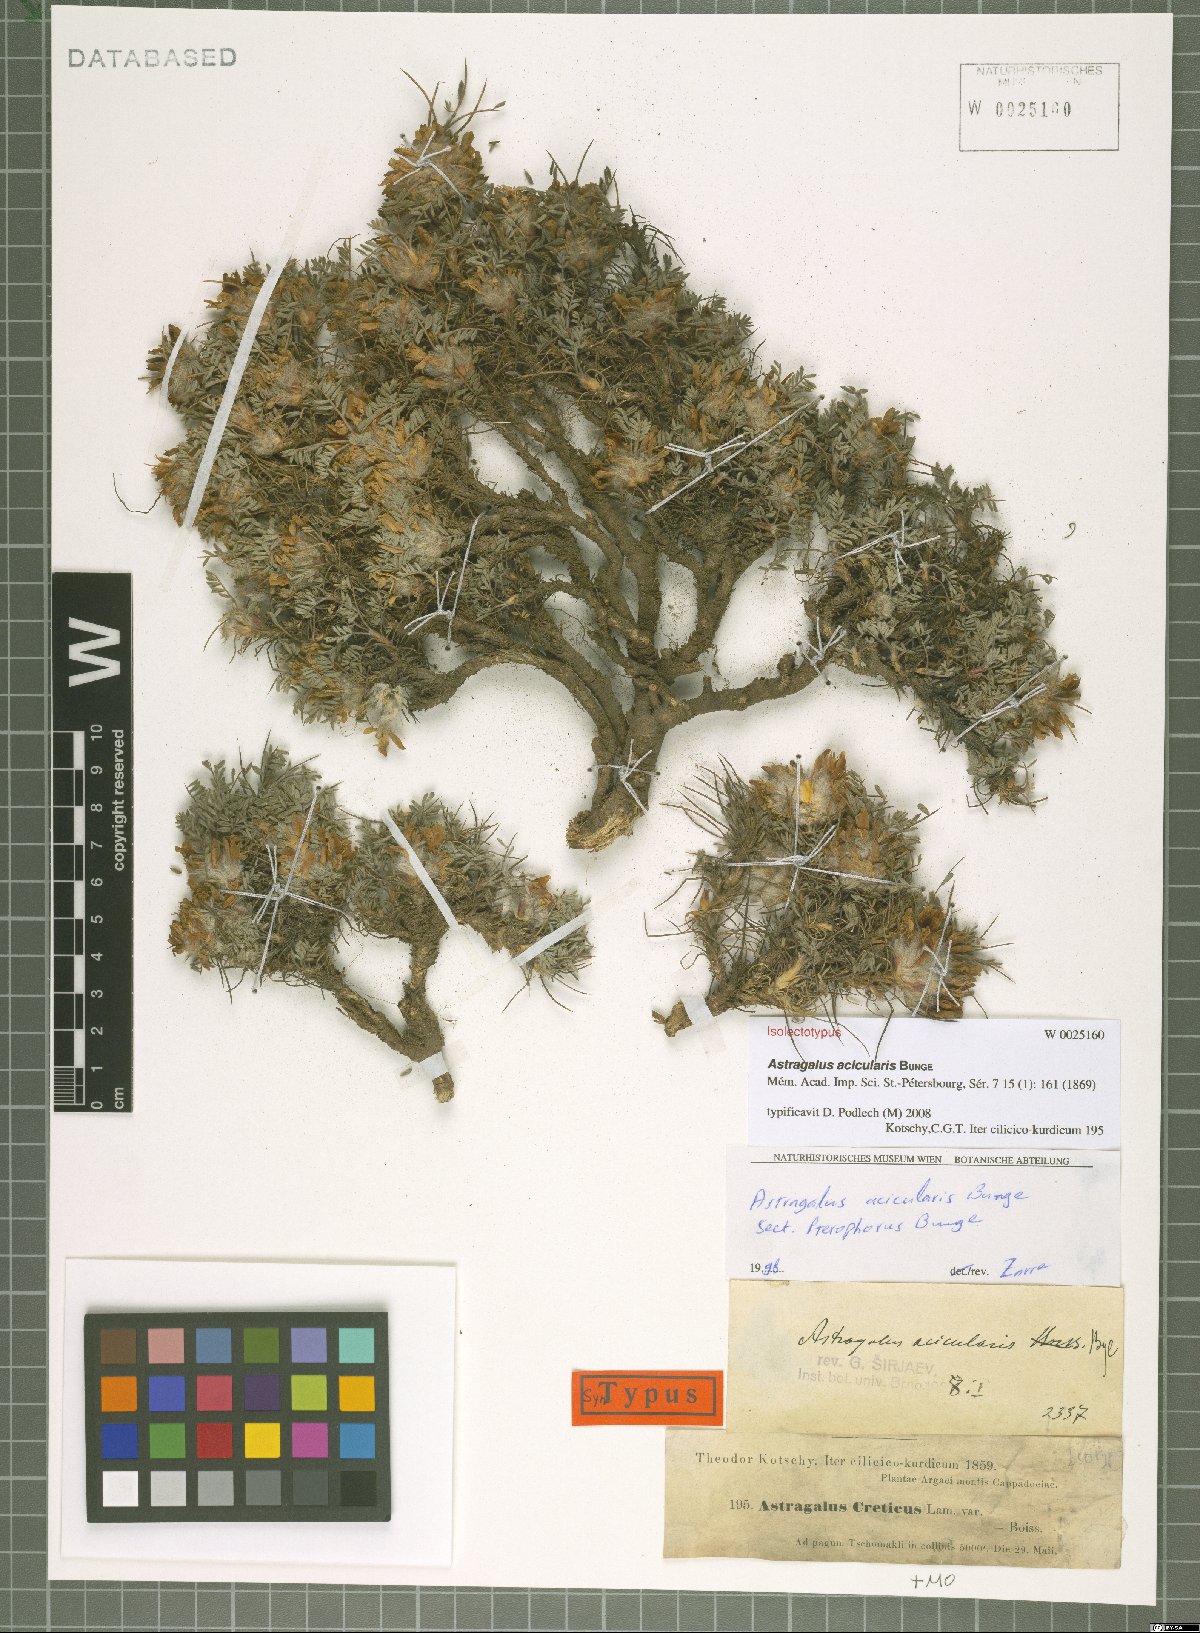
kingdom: Plantae
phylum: Tracheophyta
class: Magnoliopsida
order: Fabales
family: Fabaceae
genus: Astragalus
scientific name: Astragalus acicularis
